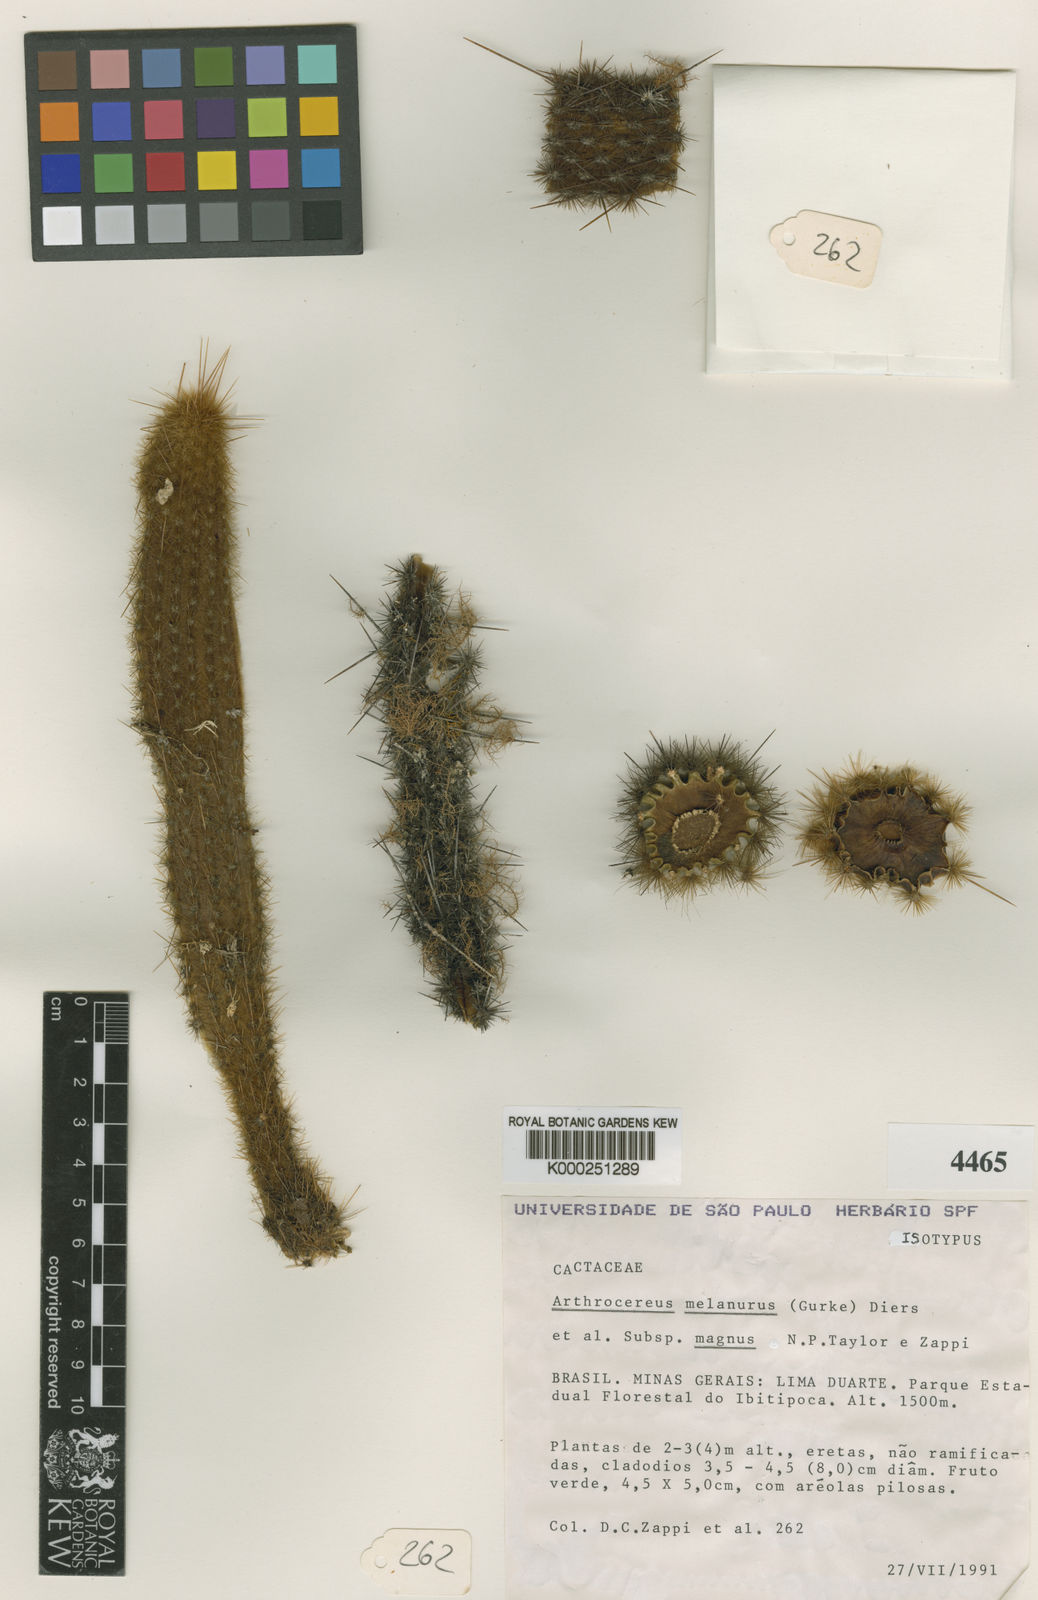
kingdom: Plantae
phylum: Tracheophyta
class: Magnoliopsida
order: Caryophyllales
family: Cactaceae
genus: Arthrocereus
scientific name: Arthrocereus melanurus
